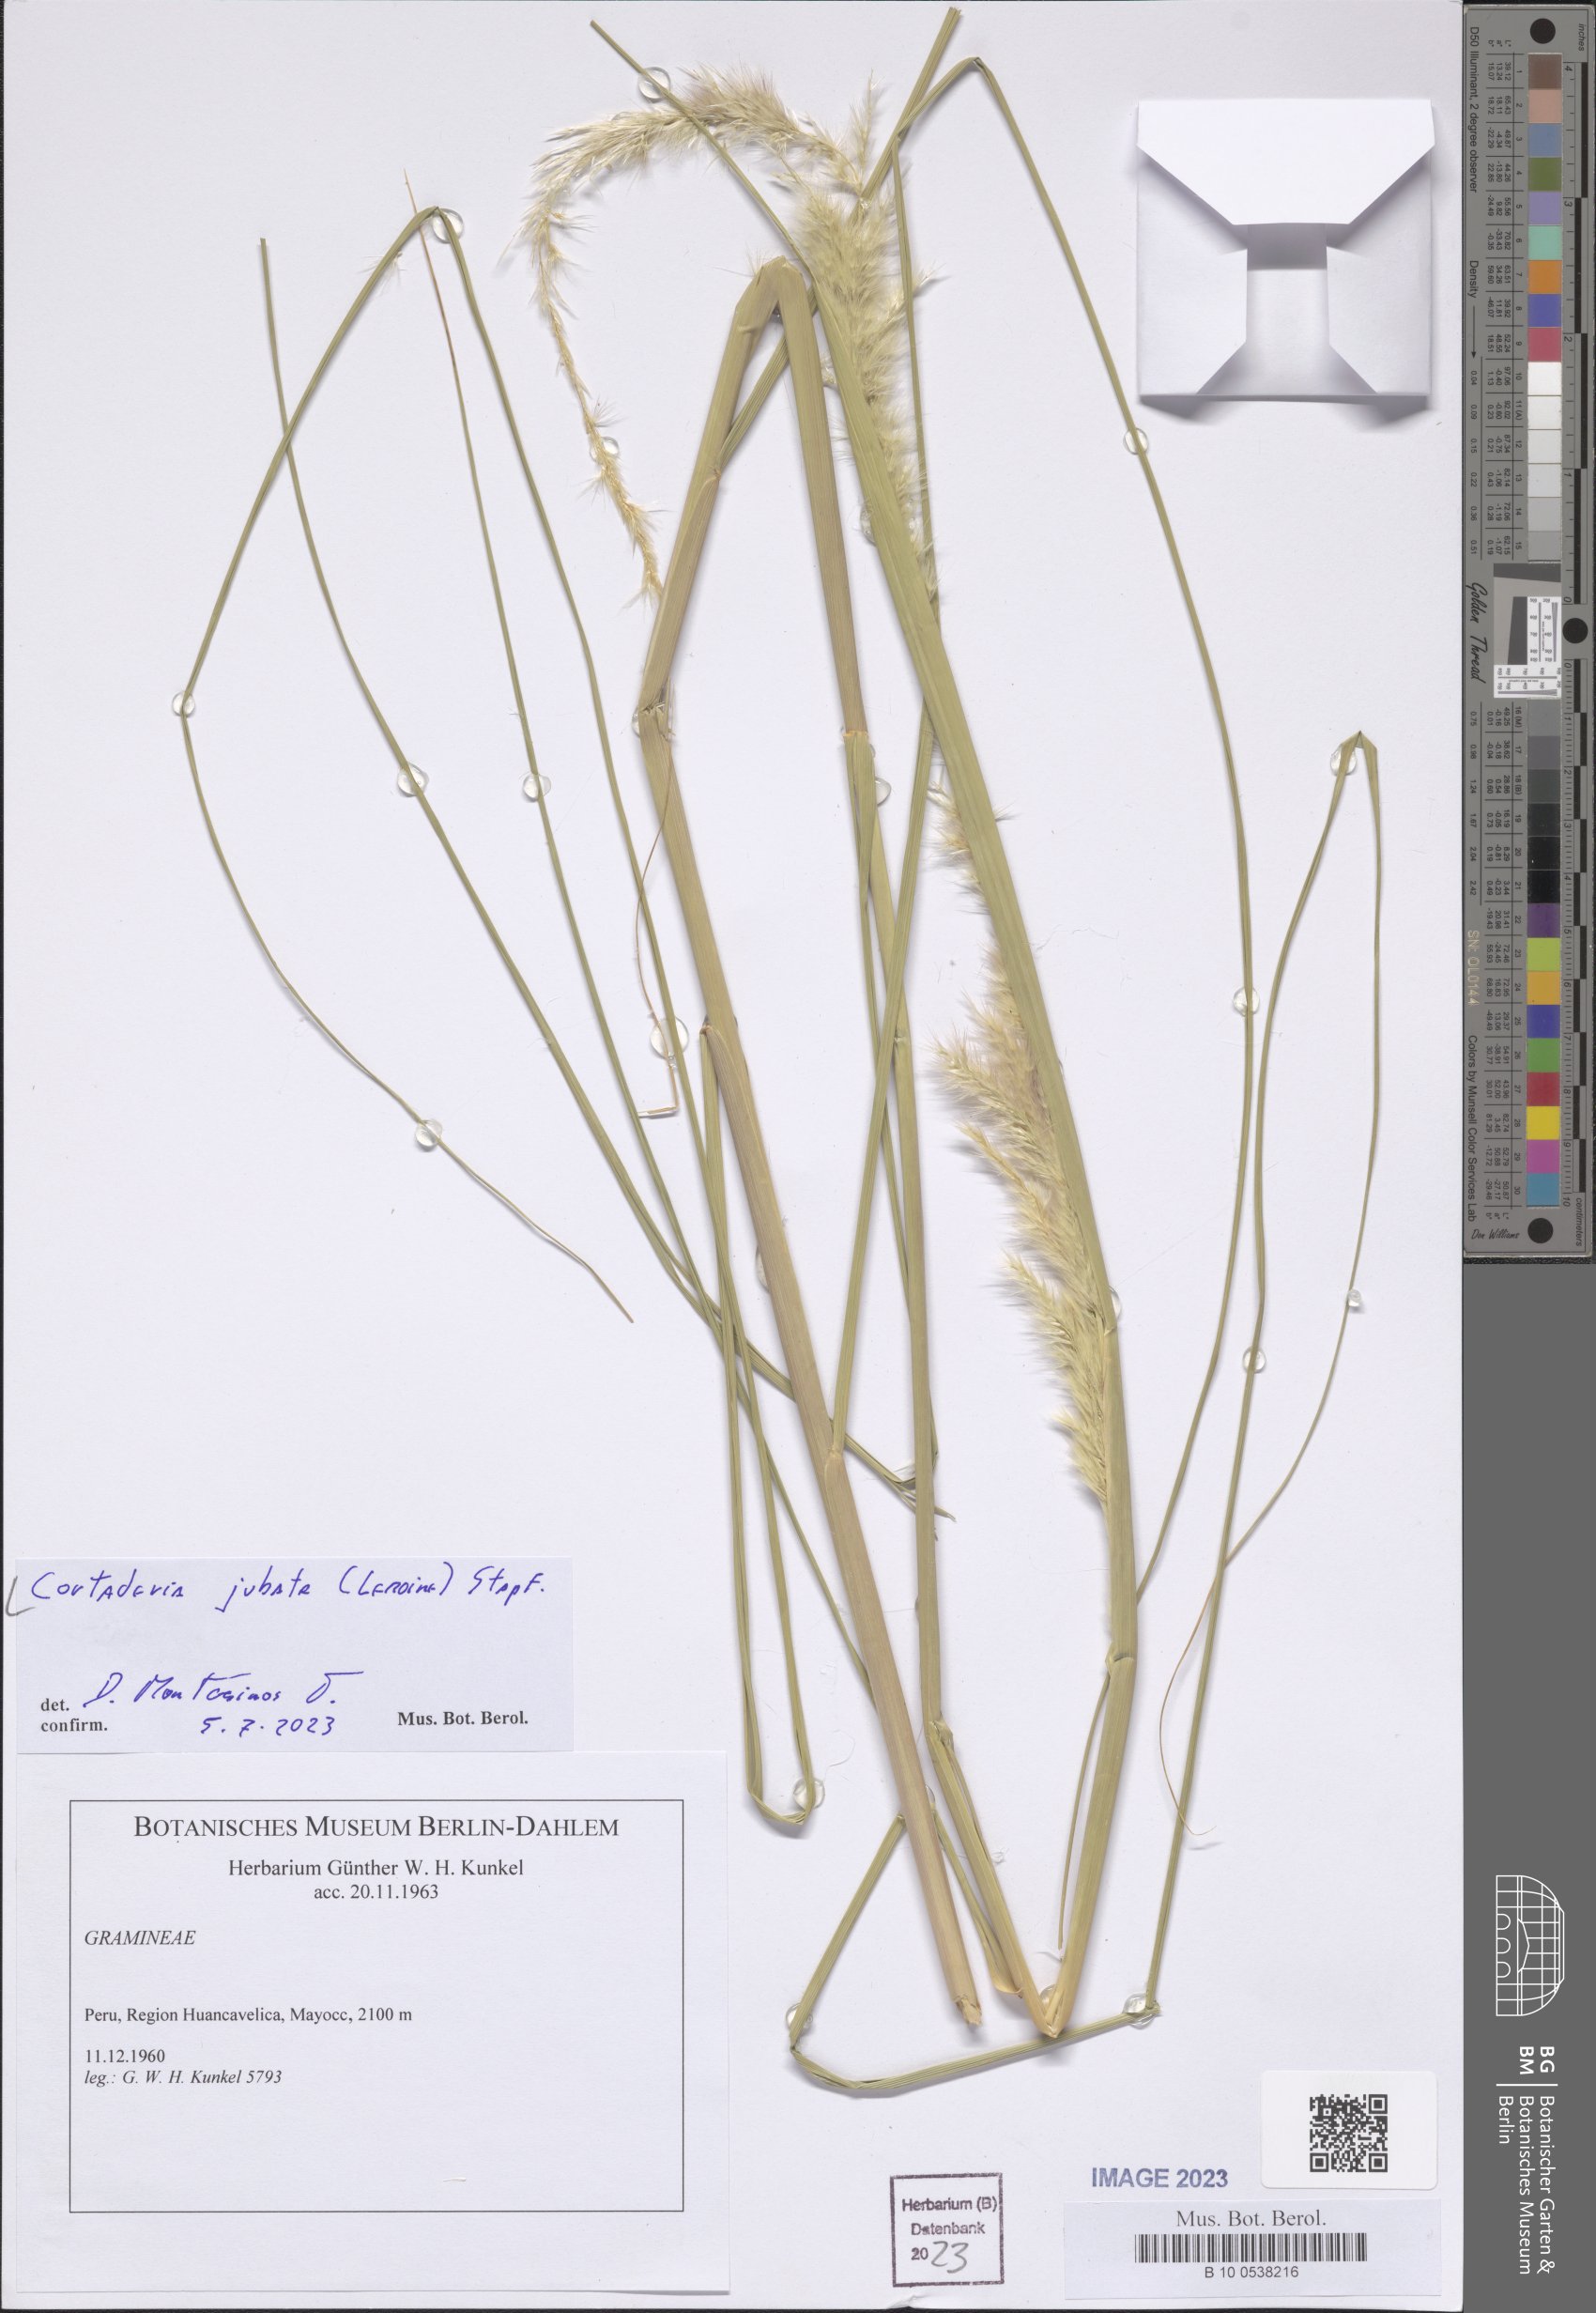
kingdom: Plantae
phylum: Tracheophyta
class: Liliopsida
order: Poales
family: Poaceae
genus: Cortaderia
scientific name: Cortaderia jubata
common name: Purple pampas grass
